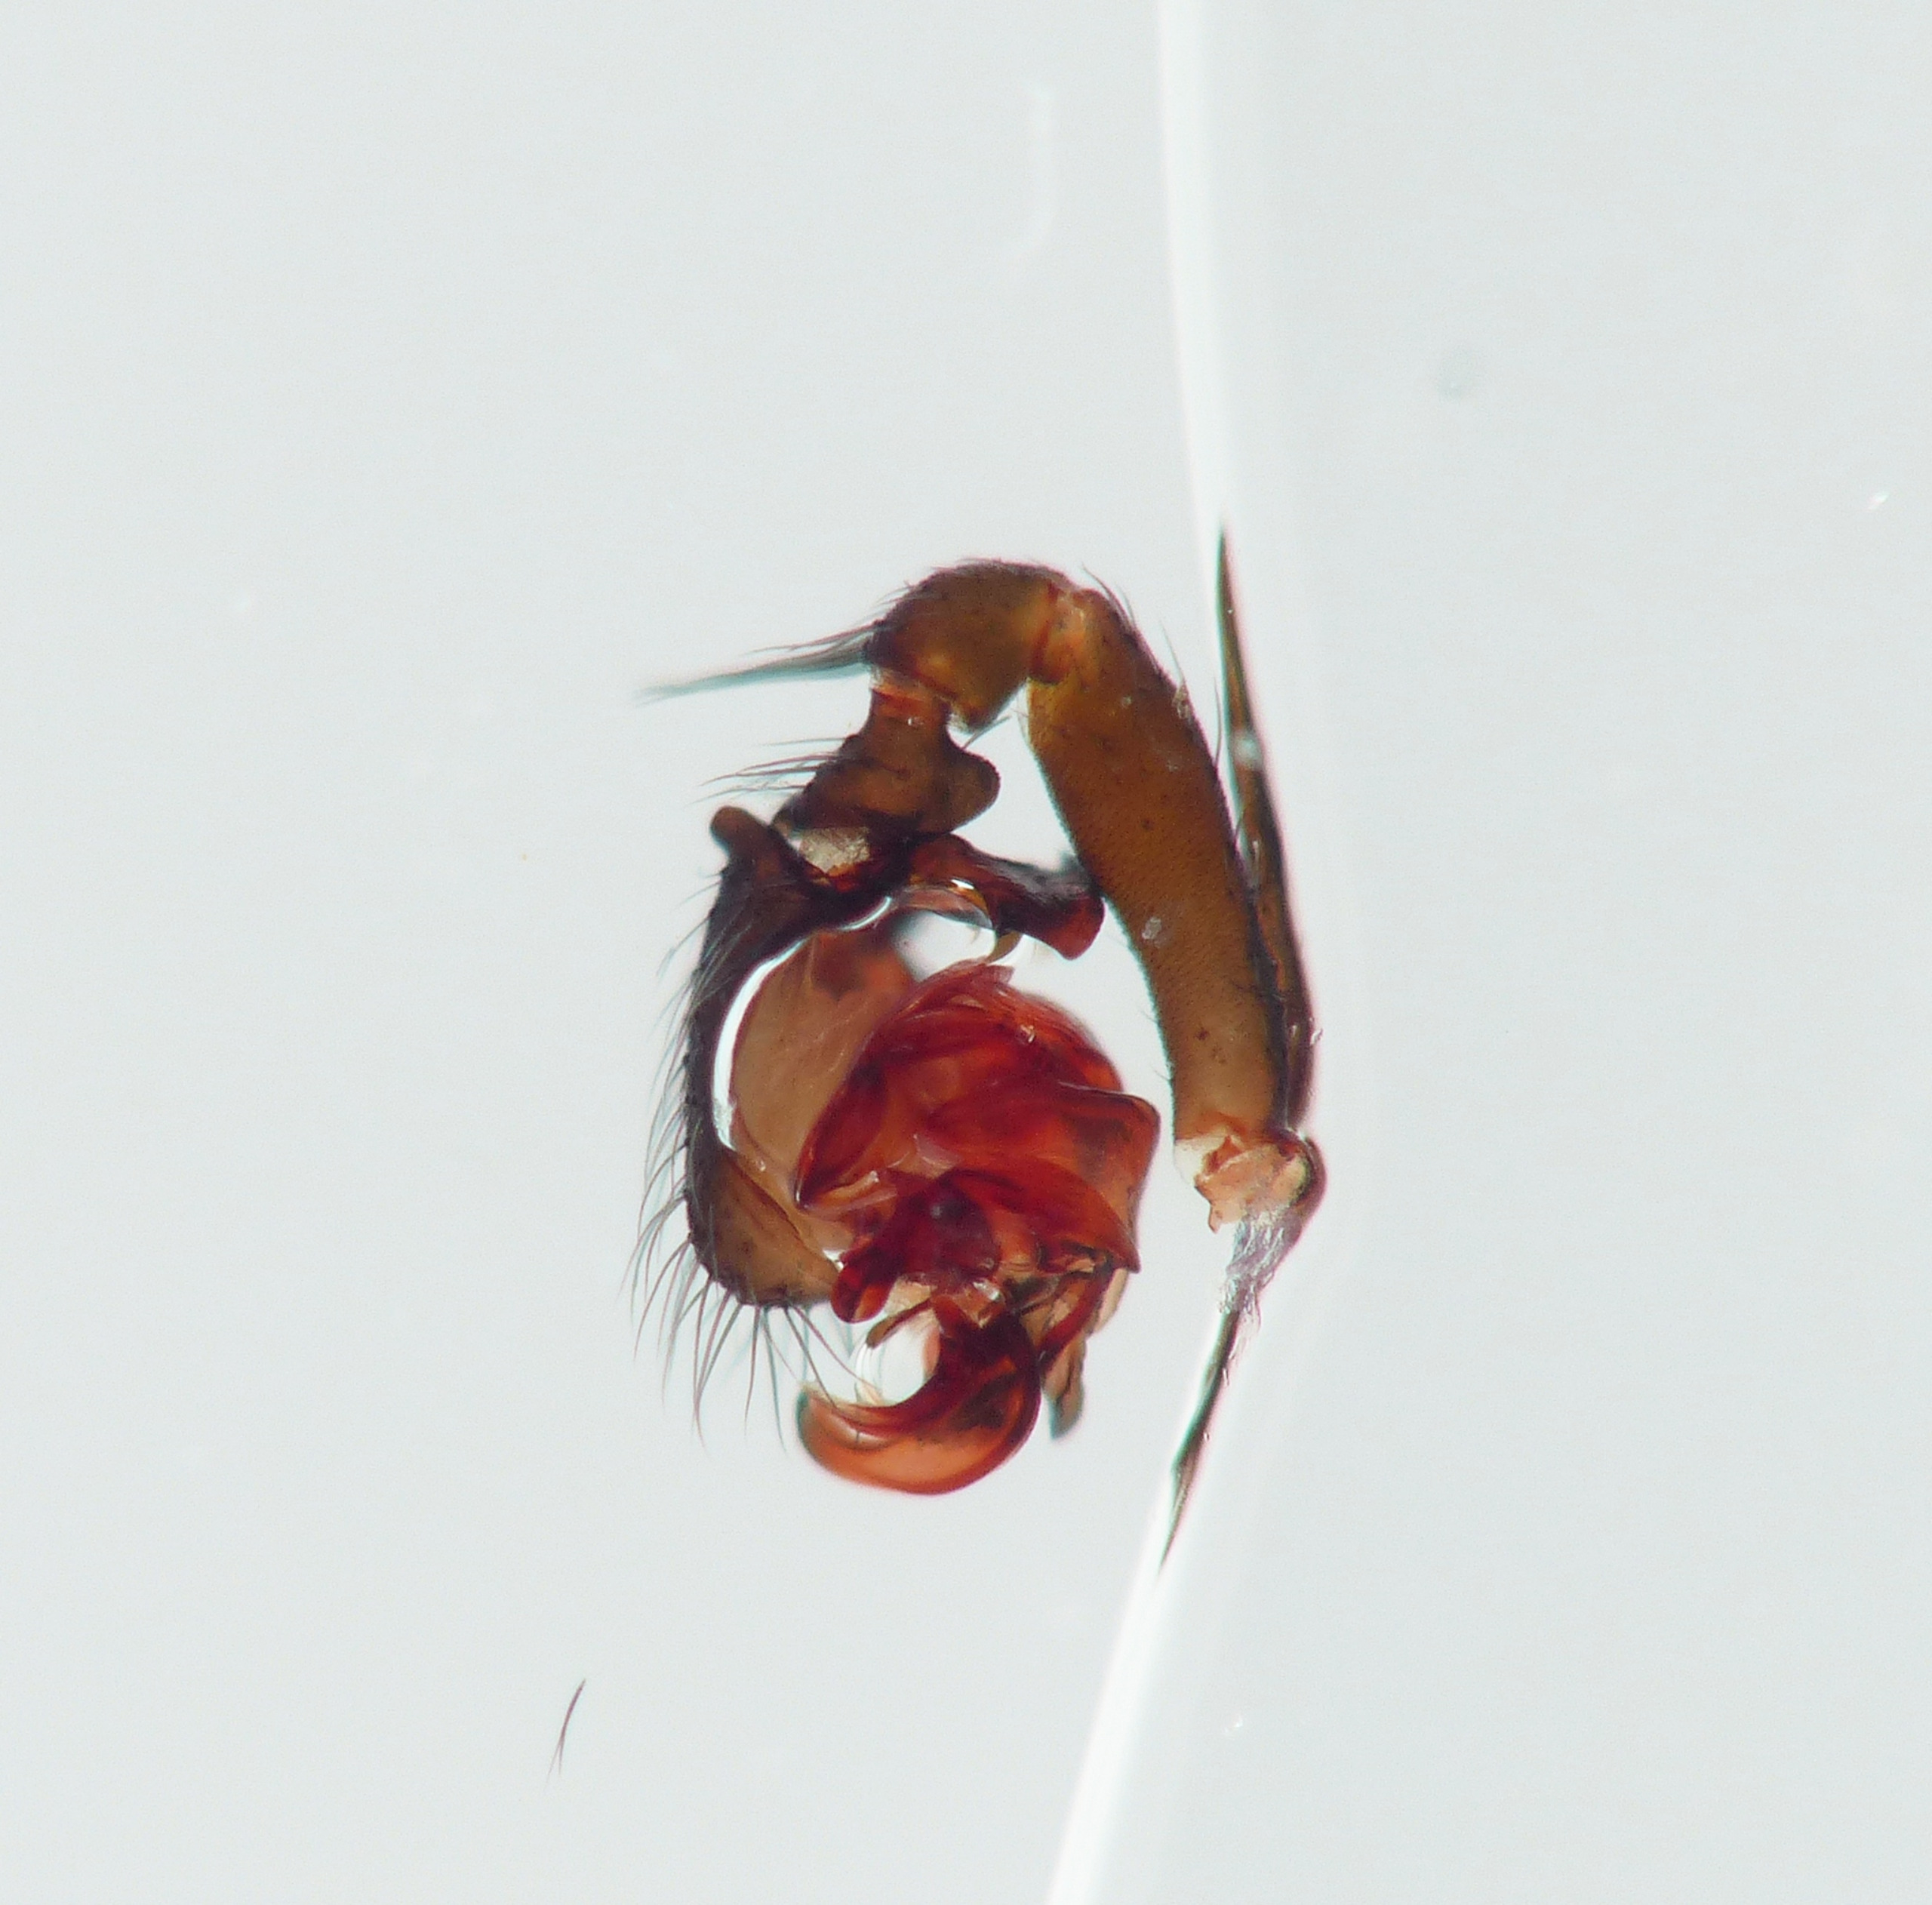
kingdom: Animalia
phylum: Arthropoda
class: Arachnida
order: Araneae
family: Linyphiidae
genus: Microneta
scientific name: Microneta viaria
